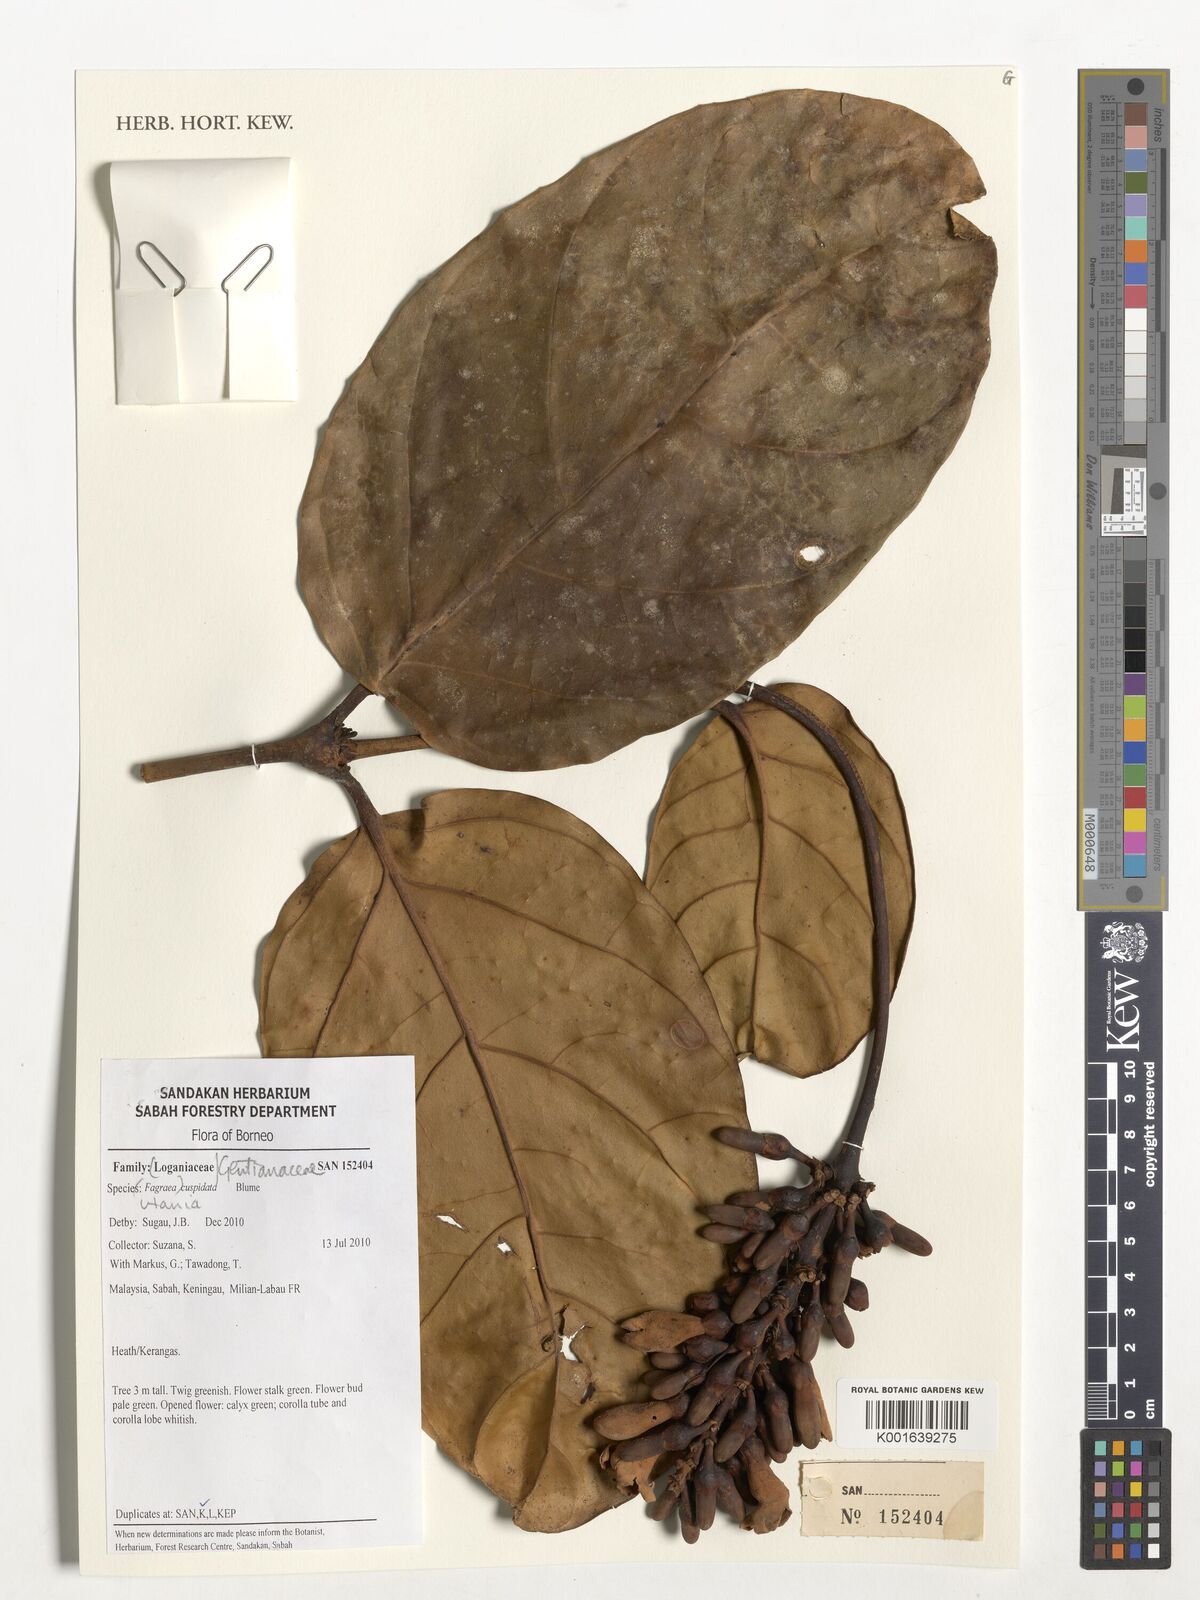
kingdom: Plantae
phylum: Tracheophyta
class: Magnoliopsida
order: Gentianales
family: Gentianaceae
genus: Utania
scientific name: Utania cuspidata
